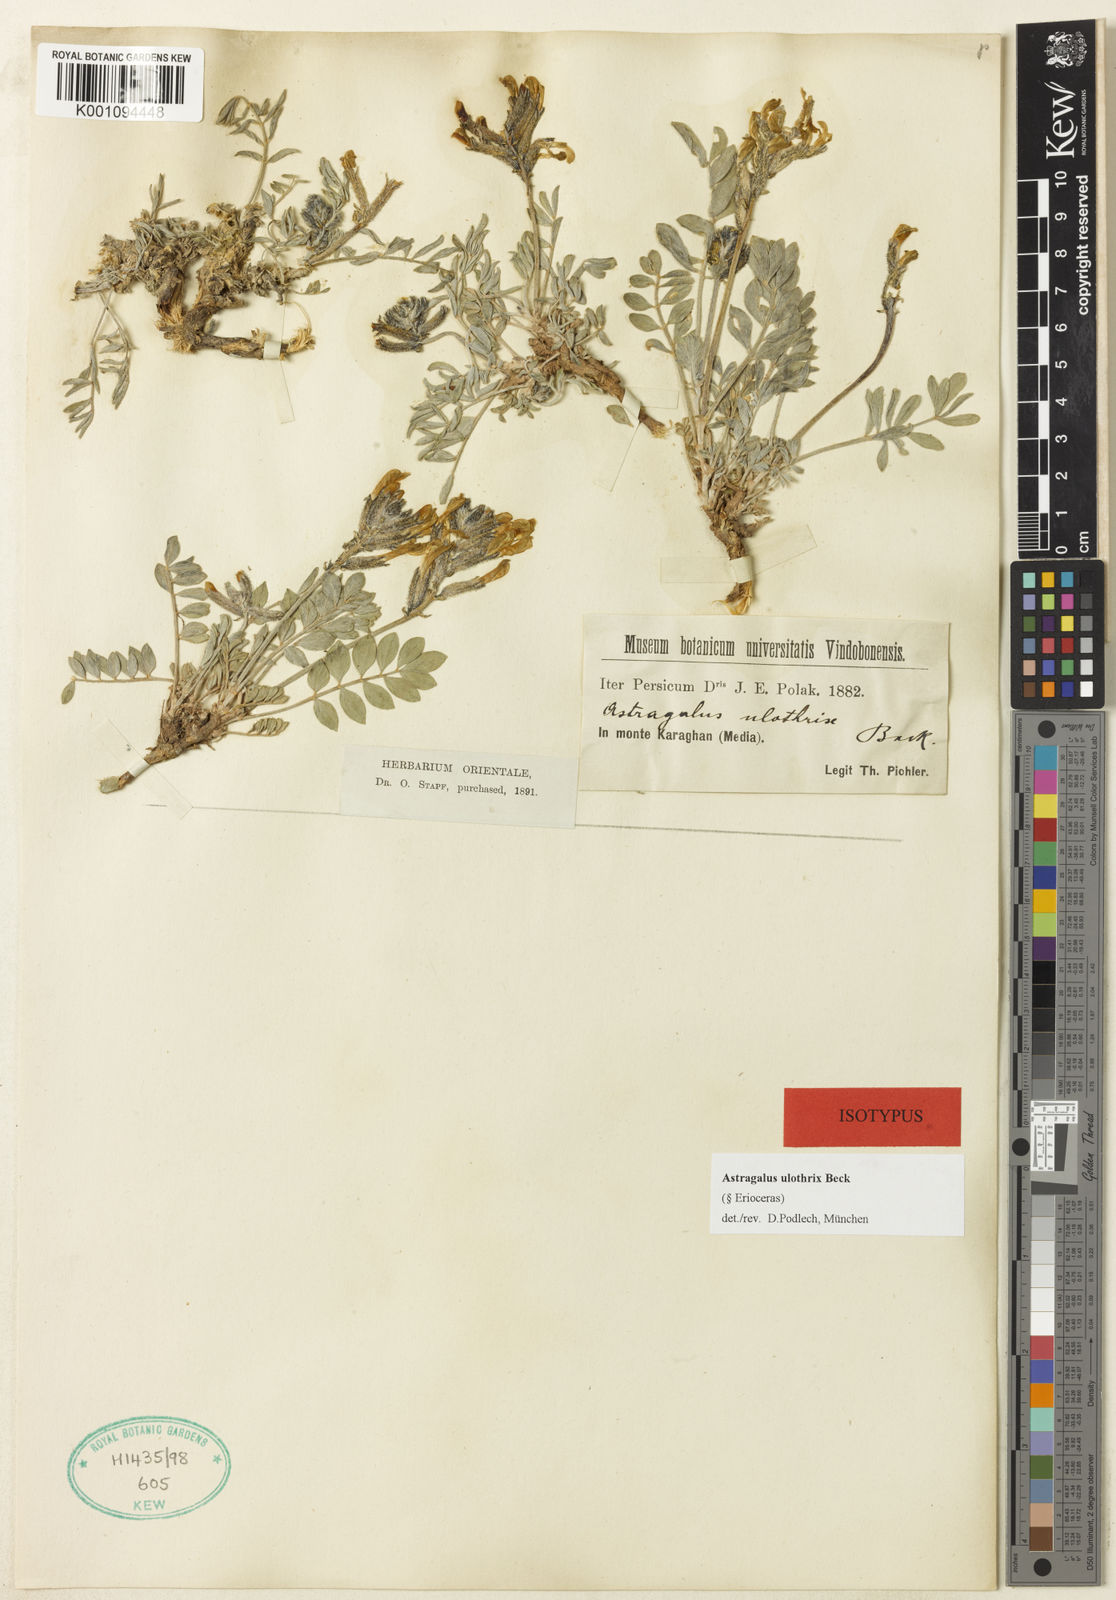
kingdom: Plantae
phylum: Tracheophyta
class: Magnoliopsida
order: Fabales
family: Fabaceae
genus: Astragalus
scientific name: Astragalus
